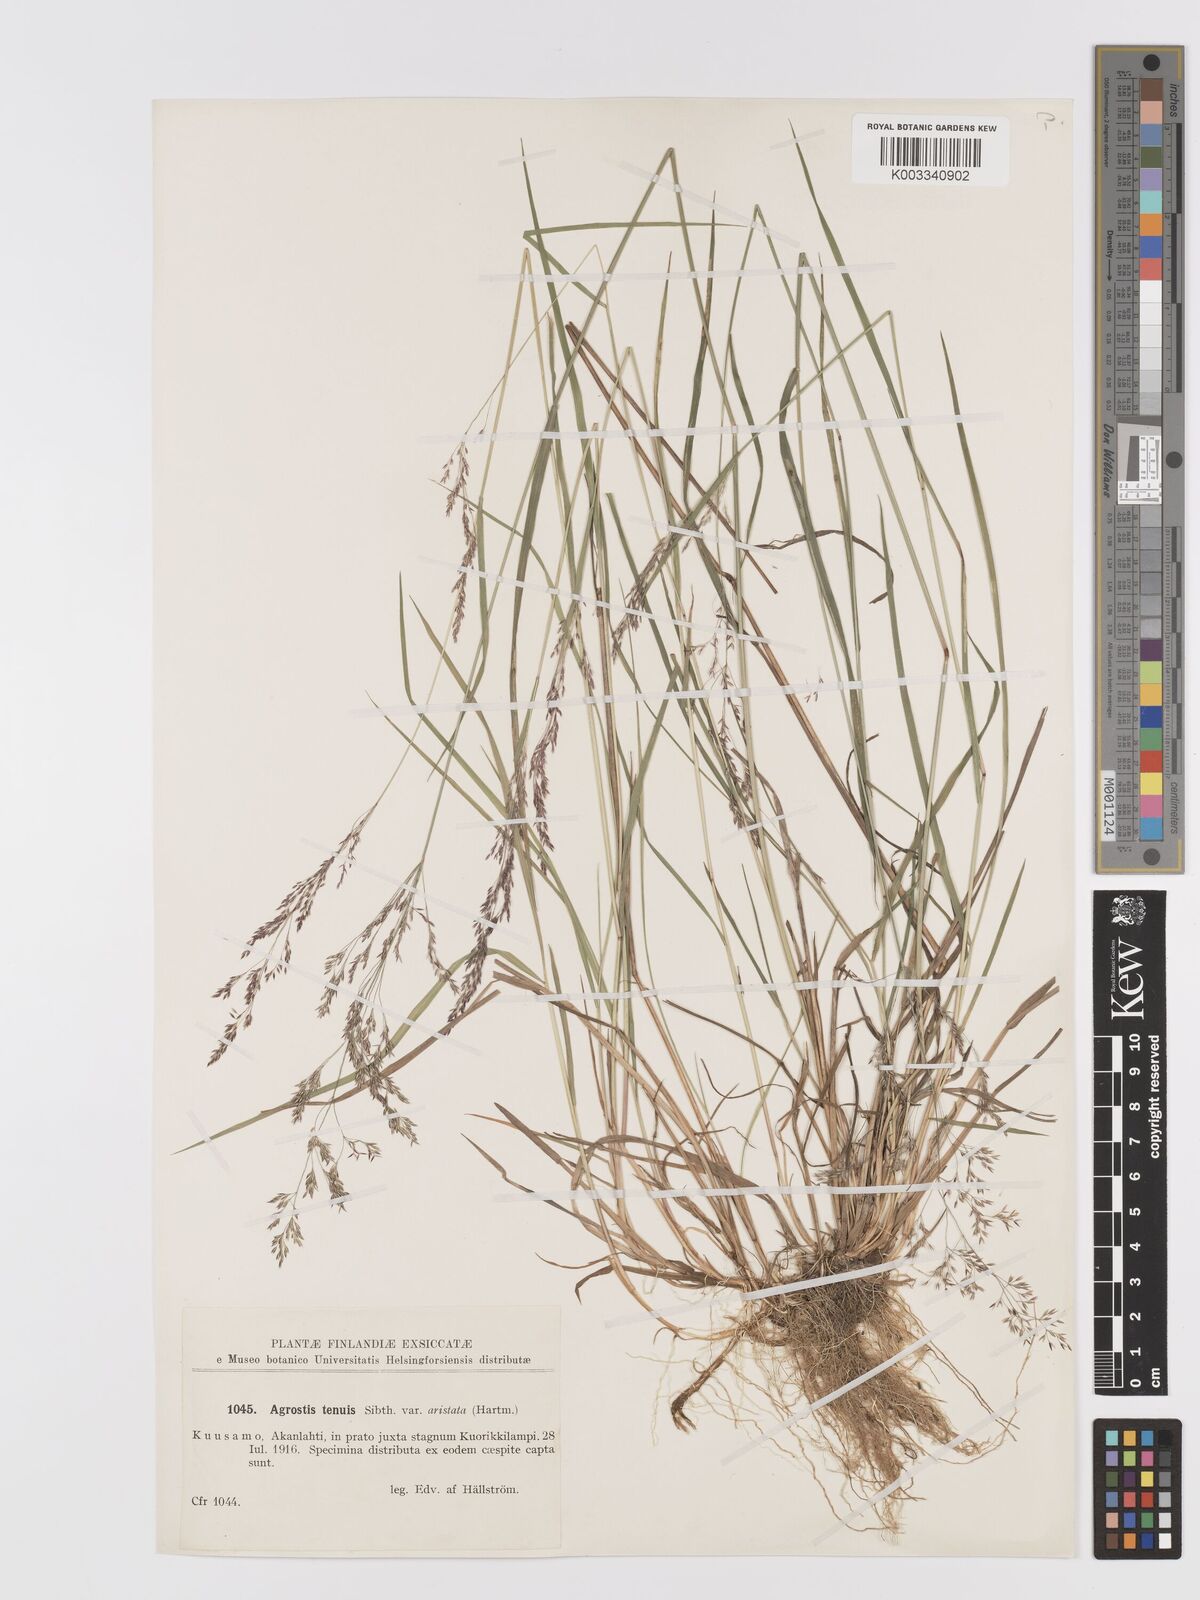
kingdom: Plantae
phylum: Tracheophyta
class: Liliopsida
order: Poales
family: Poaceae
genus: Agrostis
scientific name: Agrostis capillaris
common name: Colonial bentgrass
